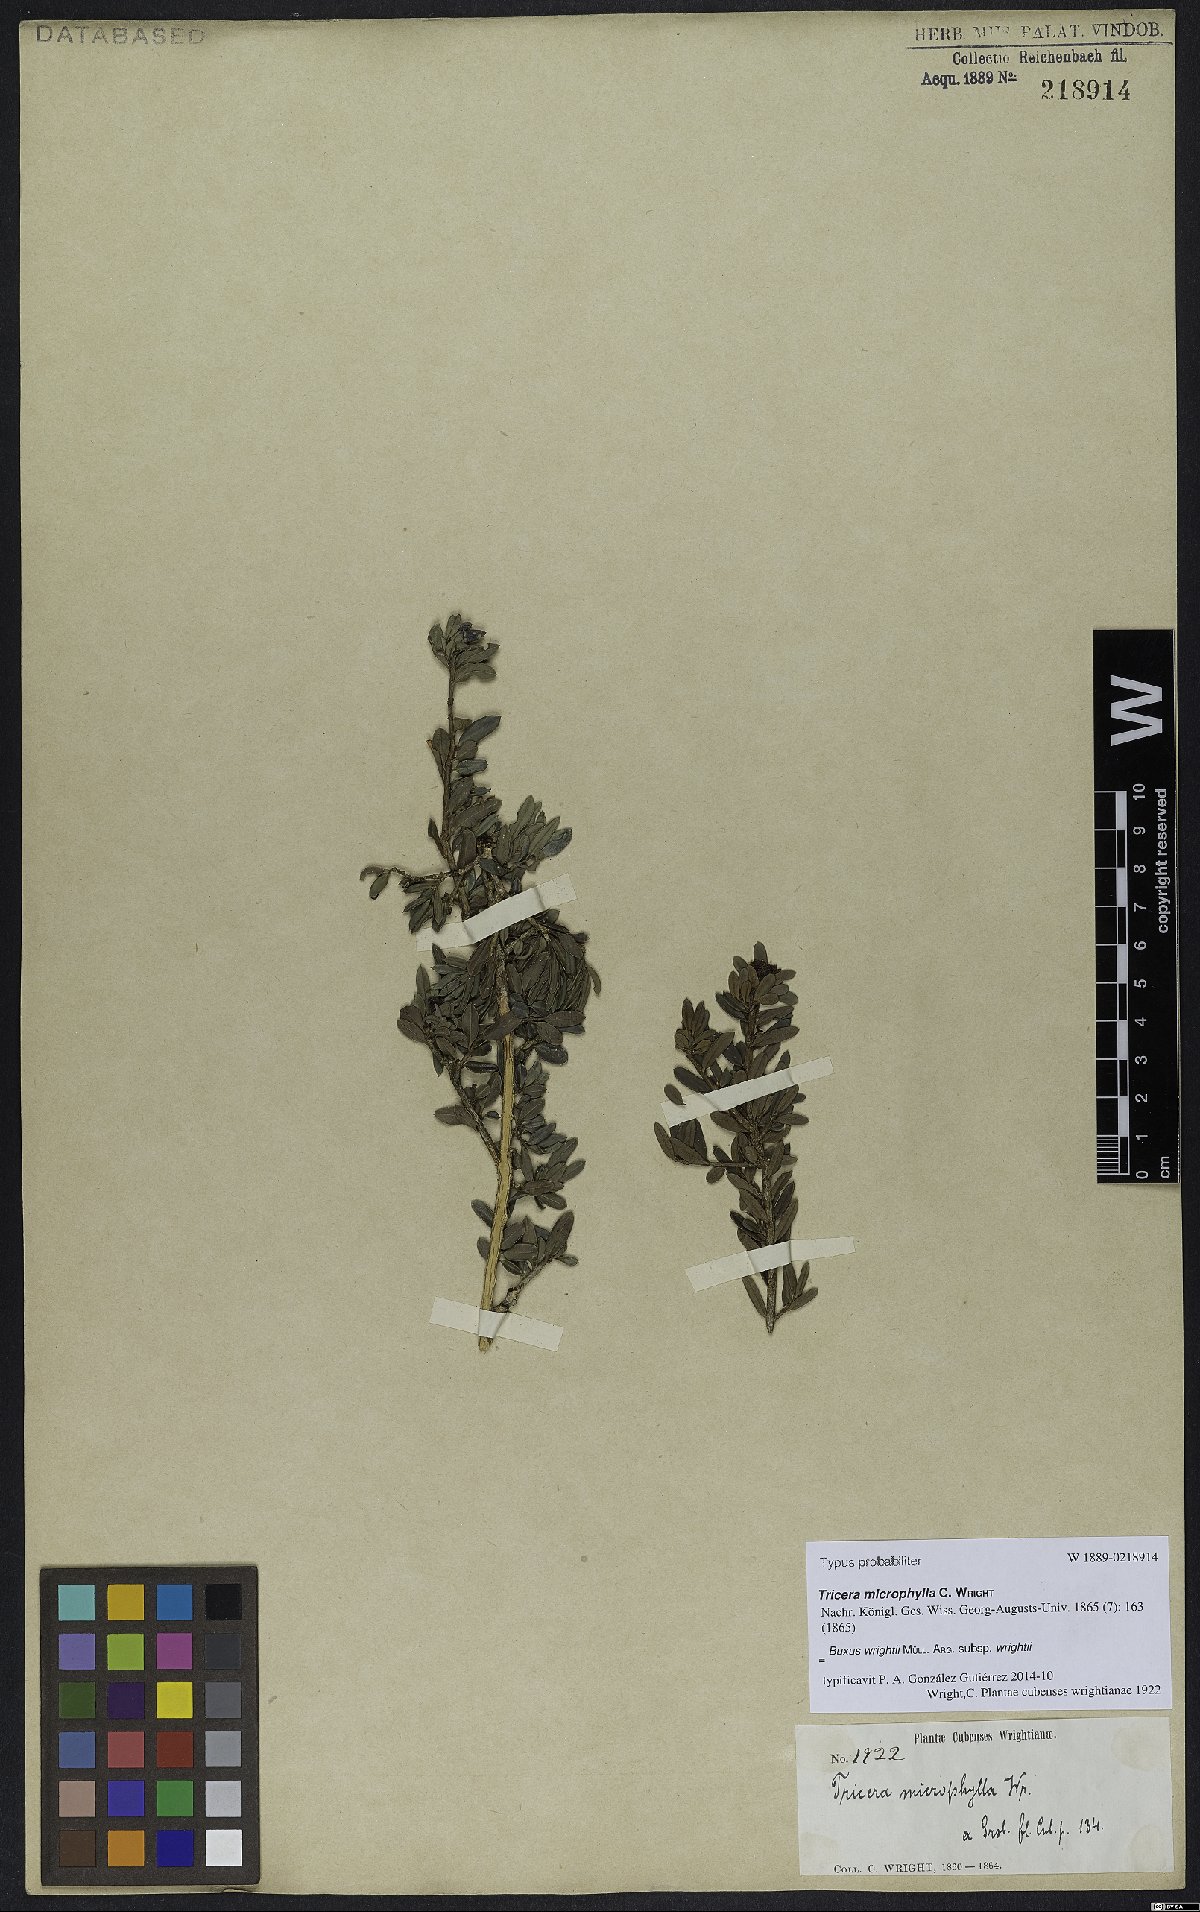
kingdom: Plantae
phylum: Tracheophyta
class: Magnoliopsida
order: Buxales
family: Buxaceae
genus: Buxus
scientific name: Buxus wrightii
